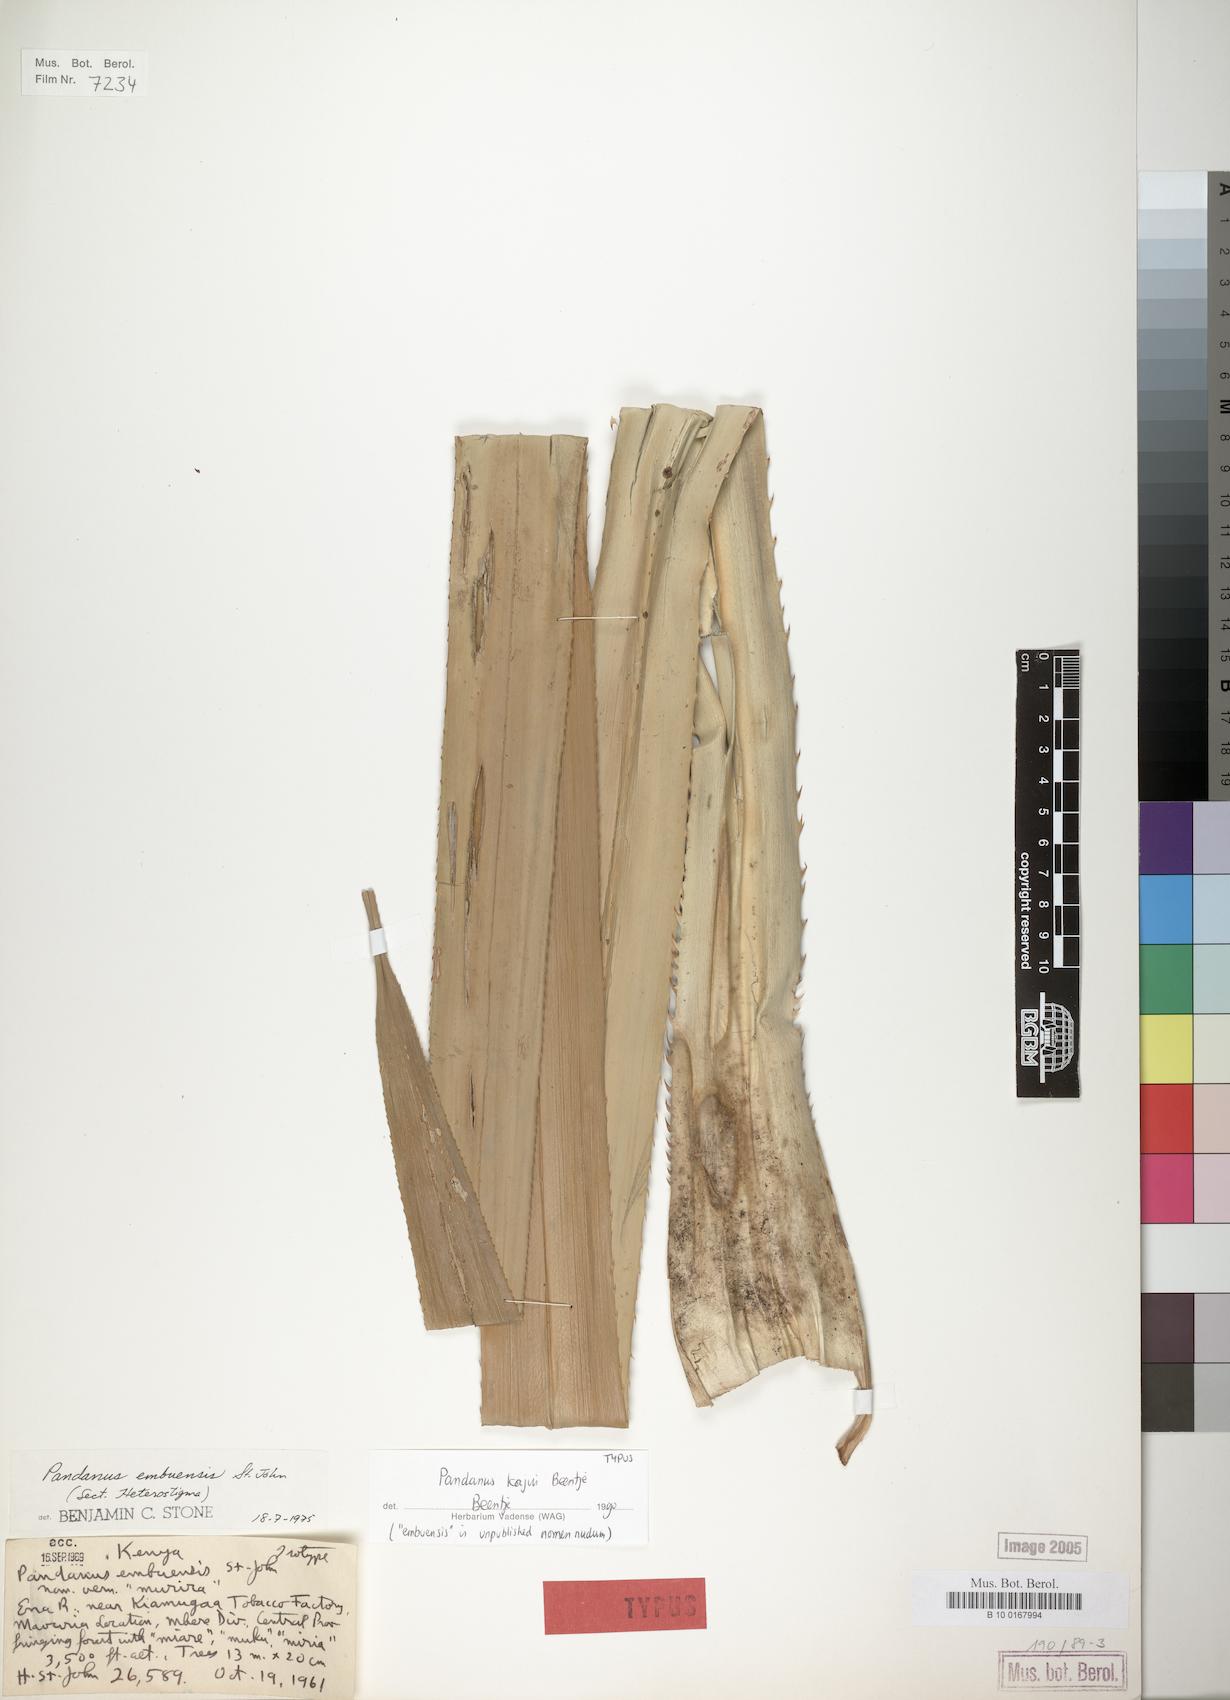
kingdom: Plantae
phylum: Tracheophyta
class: Liliopsida
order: Pandanales
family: Pandanaceae
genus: Pandanus
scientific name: Pandanus kajui
